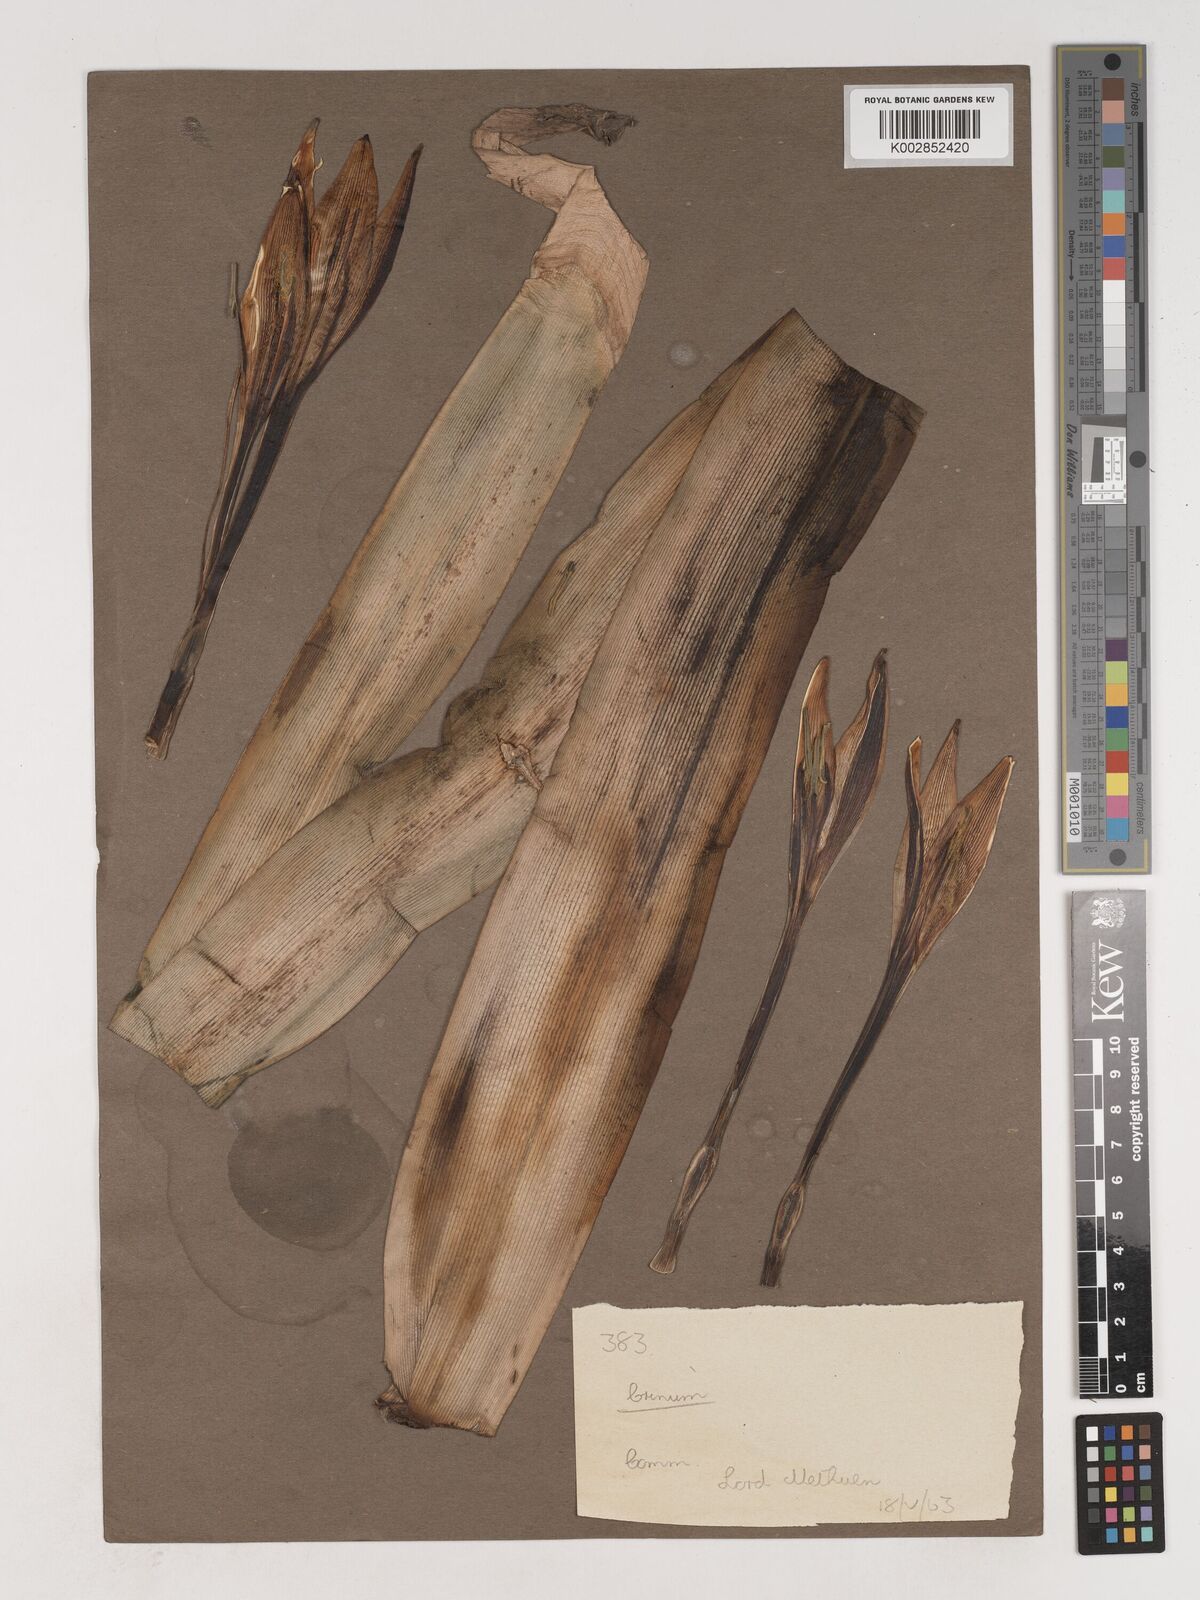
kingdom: Plantae
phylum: Tracheophyta
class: Liliopsida
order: Asparagales
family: Amaryllidaceae
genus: Crinum
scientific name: Crinum
